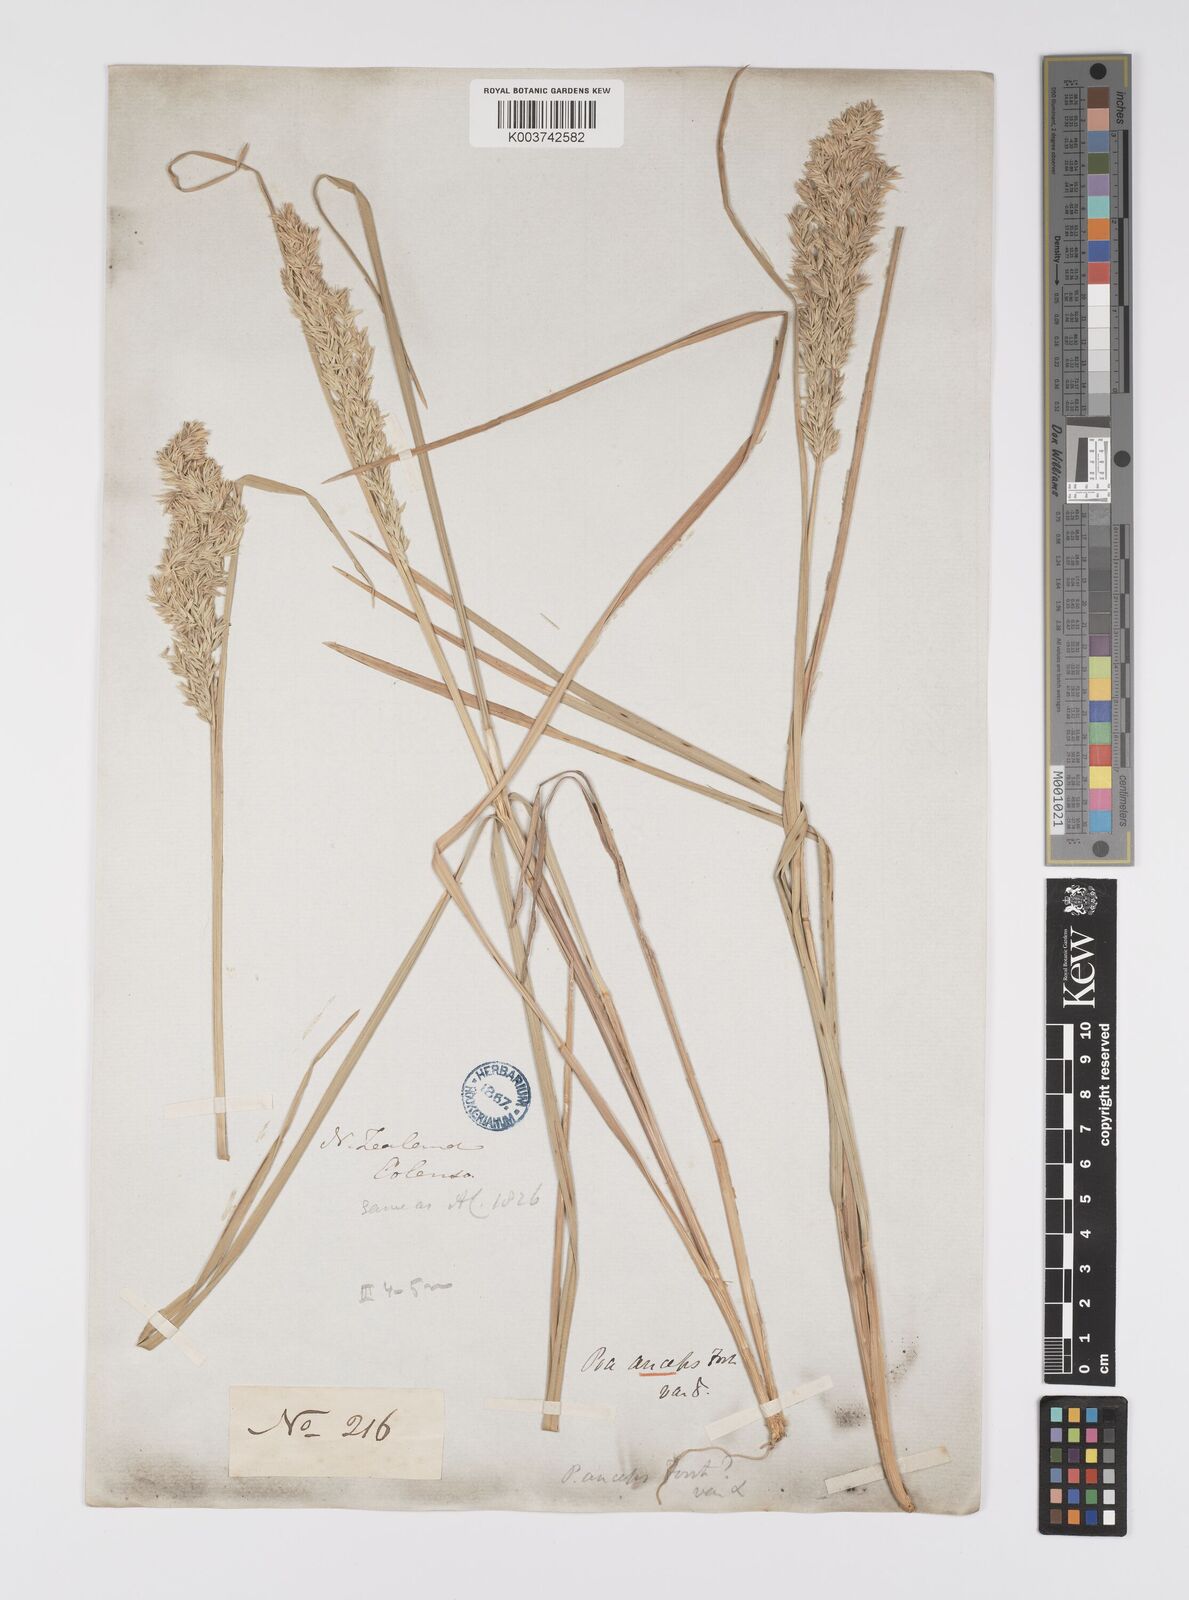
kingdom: Plantae
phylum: Tracheophyta
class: Liliopsida
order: Poales
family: Poaceae
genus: Poa
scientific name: Poa anceps
